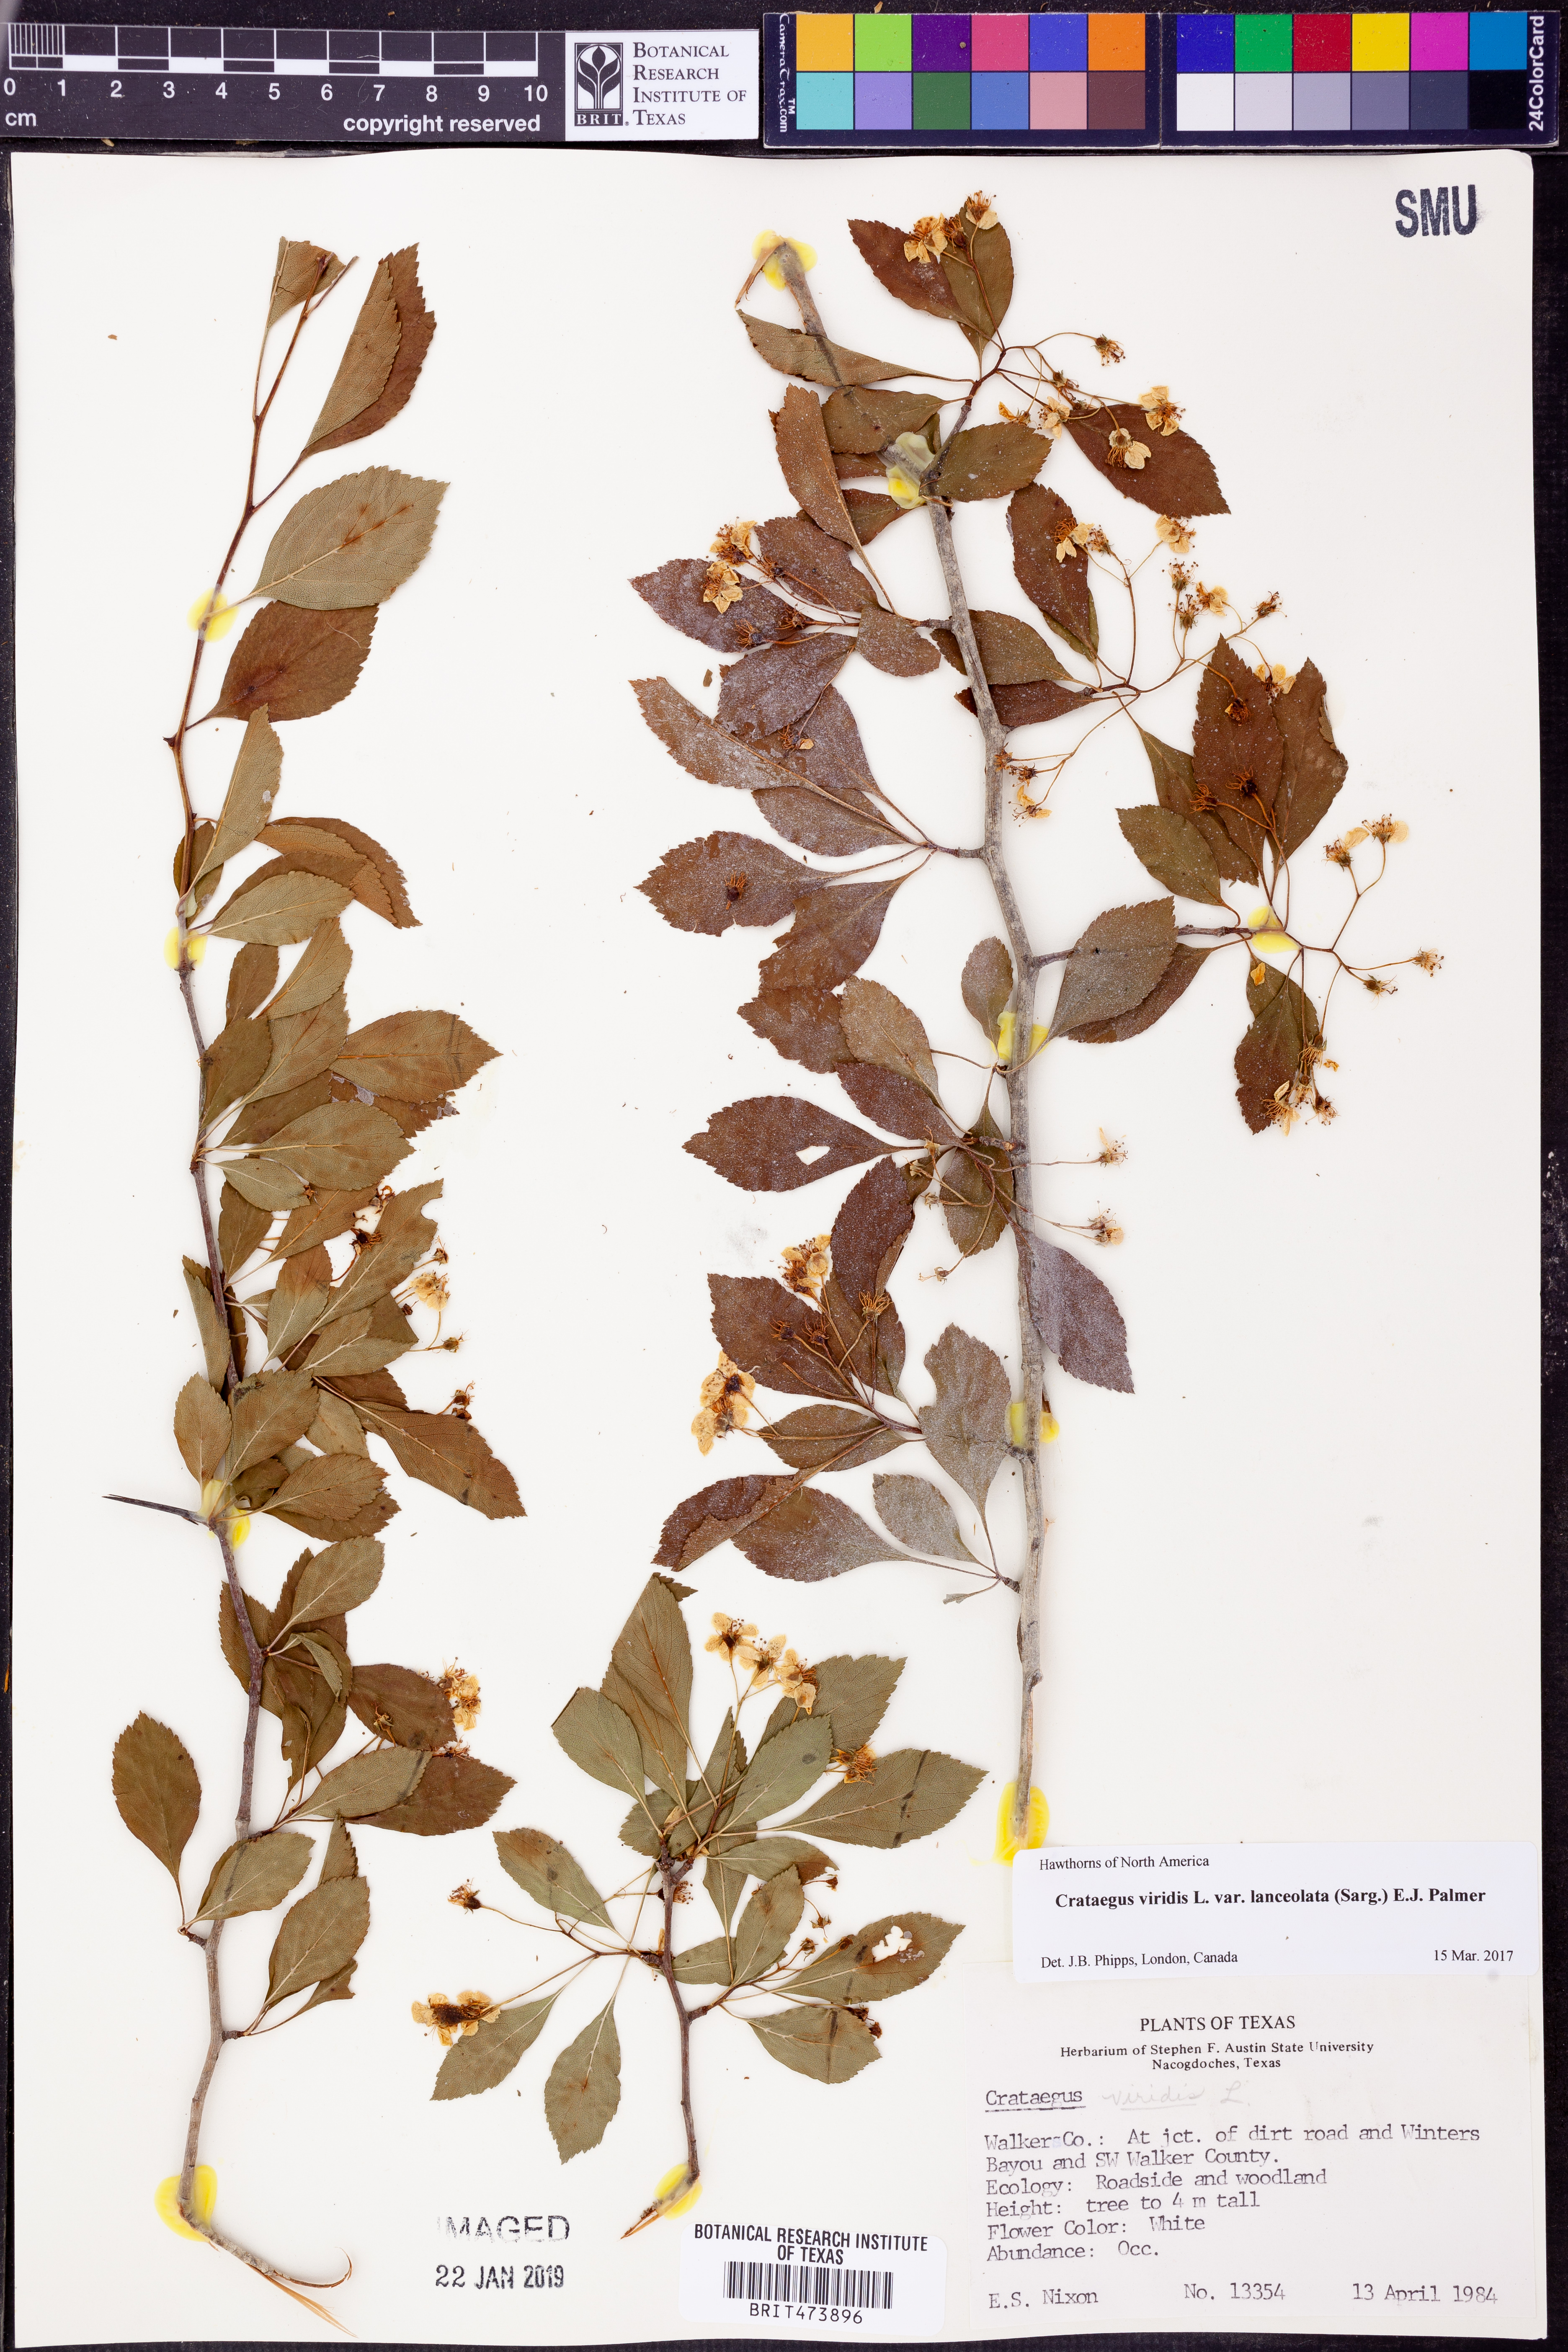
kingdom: Plantae
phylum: Tracheophyta
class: Magnoliopsida
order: Rosales
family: Rosaceae
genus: Crataegus
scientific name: Crataegus viridis
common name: Southernthorn
